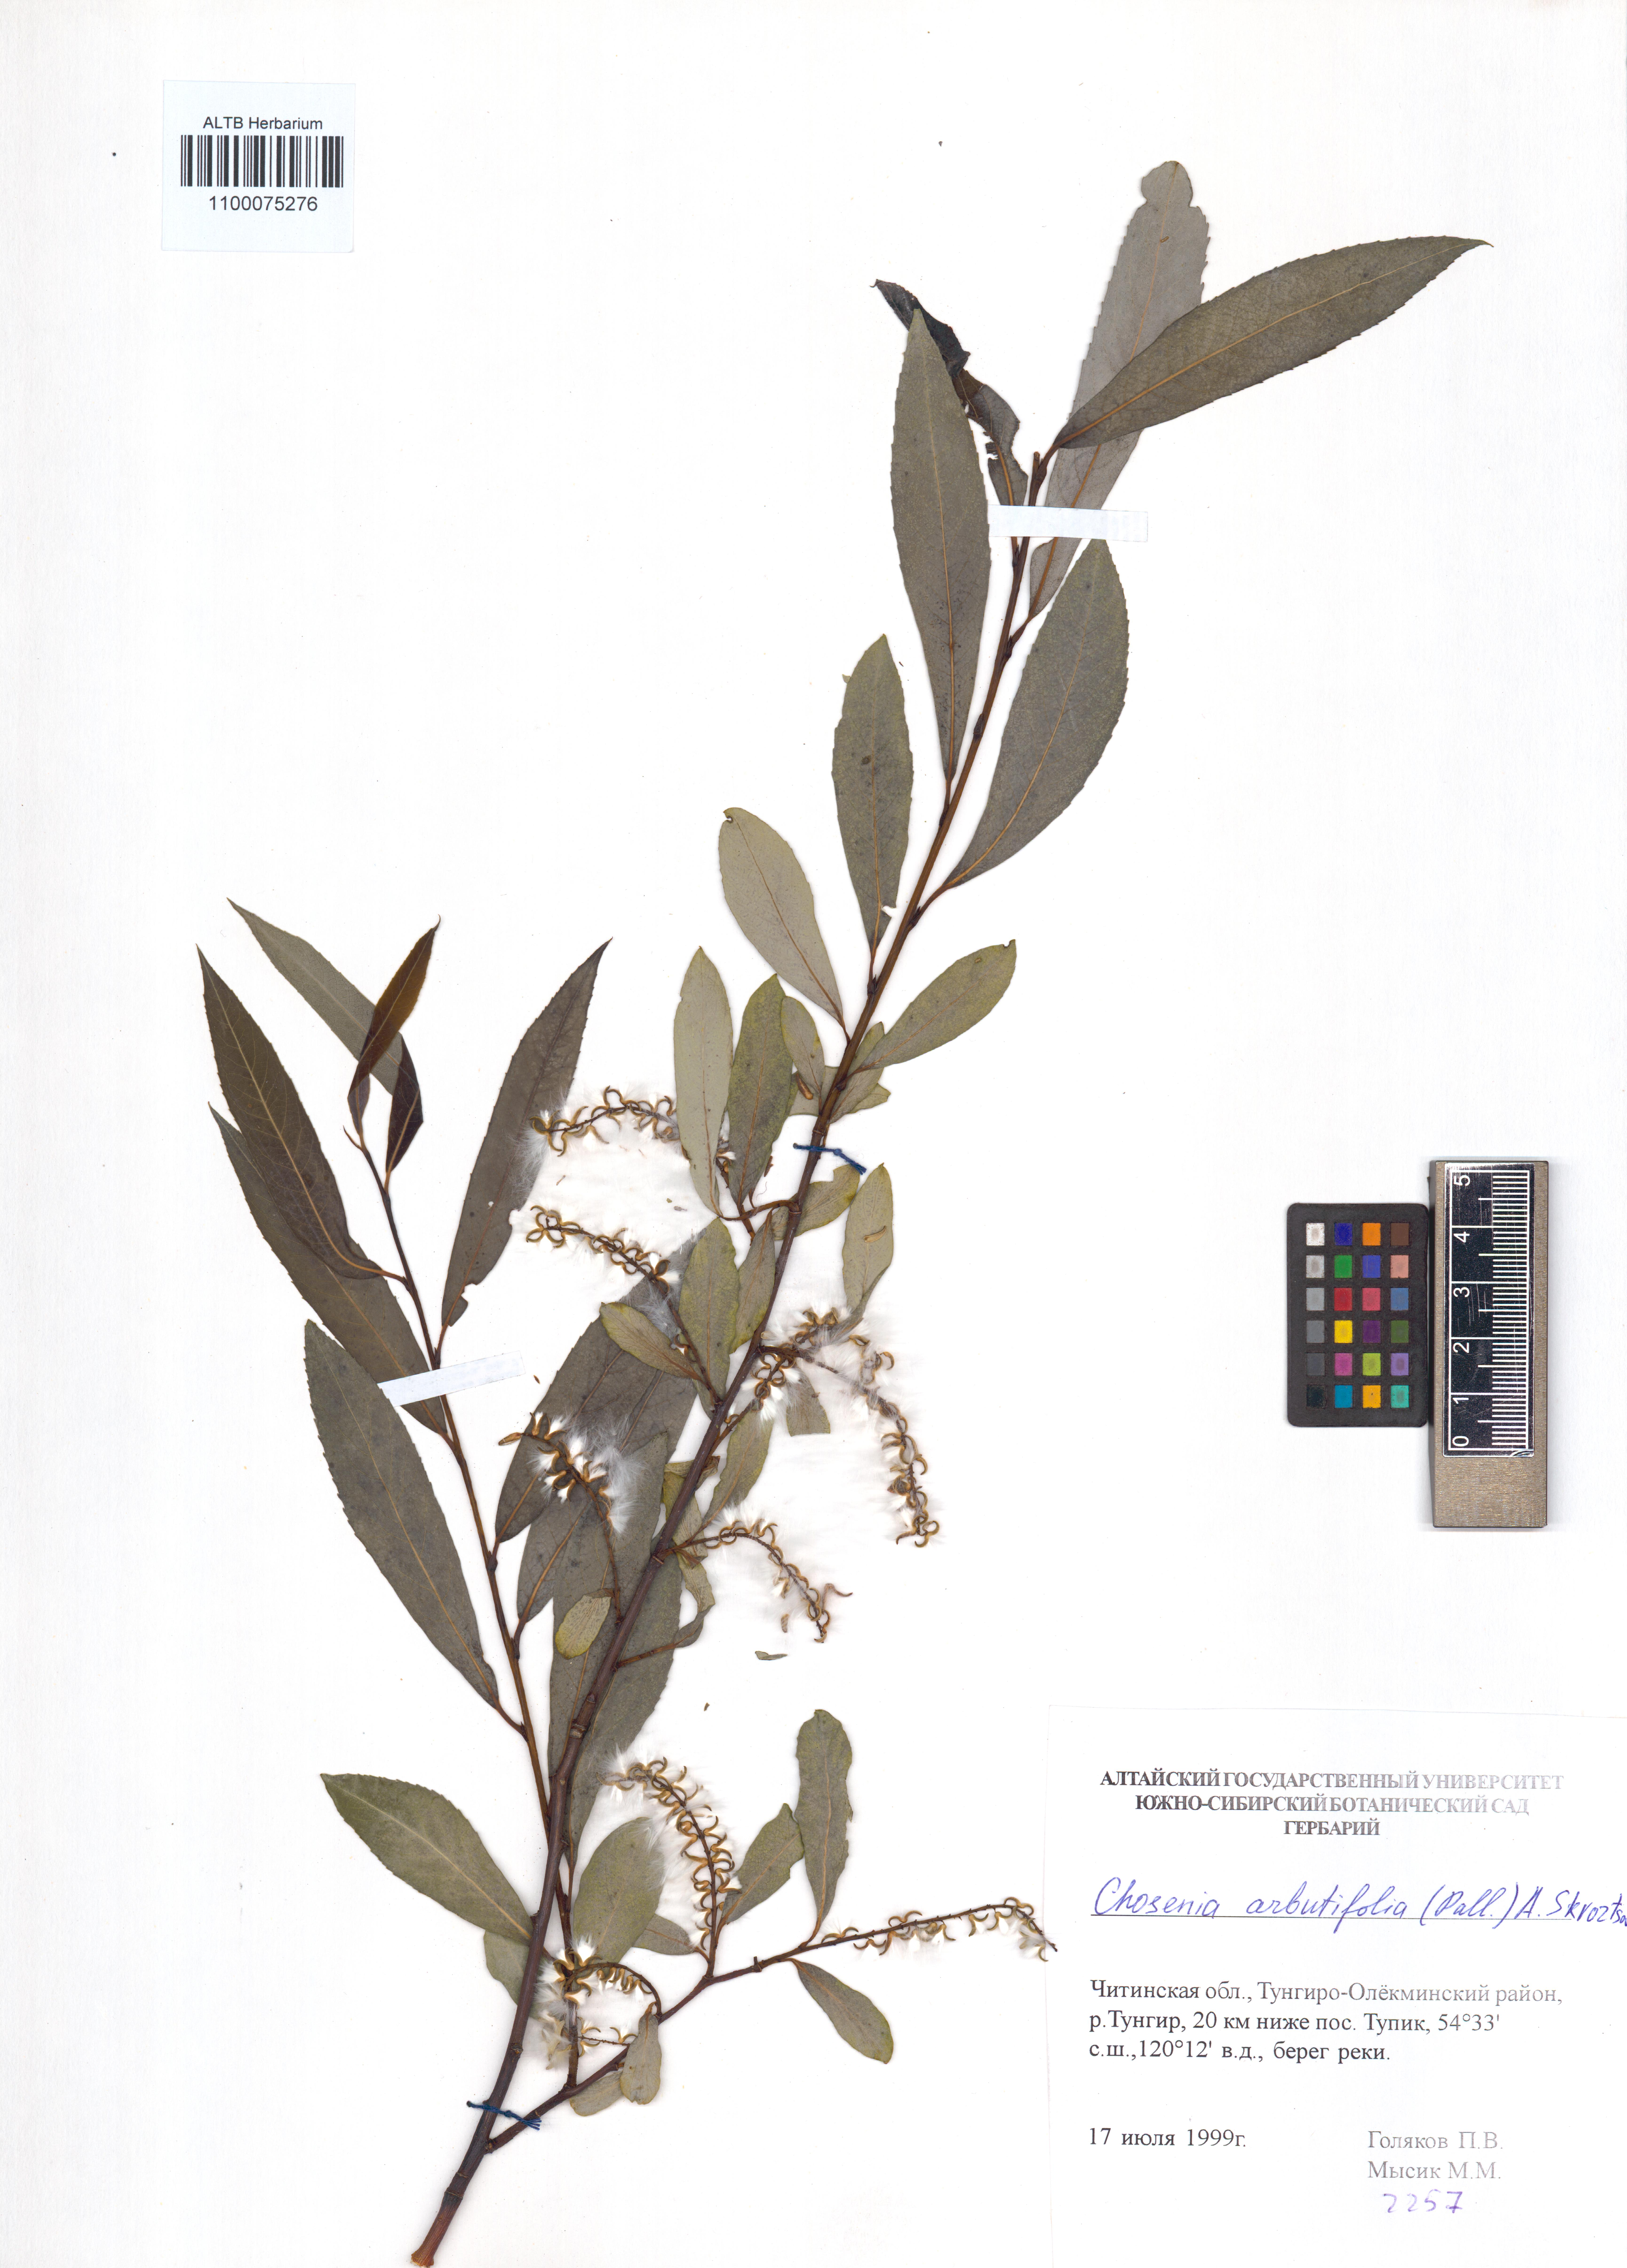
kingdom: Plantae
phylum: Tracheophyta
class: Magnoliopsida
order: Malpighiales
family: Salicaceae
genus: Chosenia
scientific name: Chosenia arbutifolia
